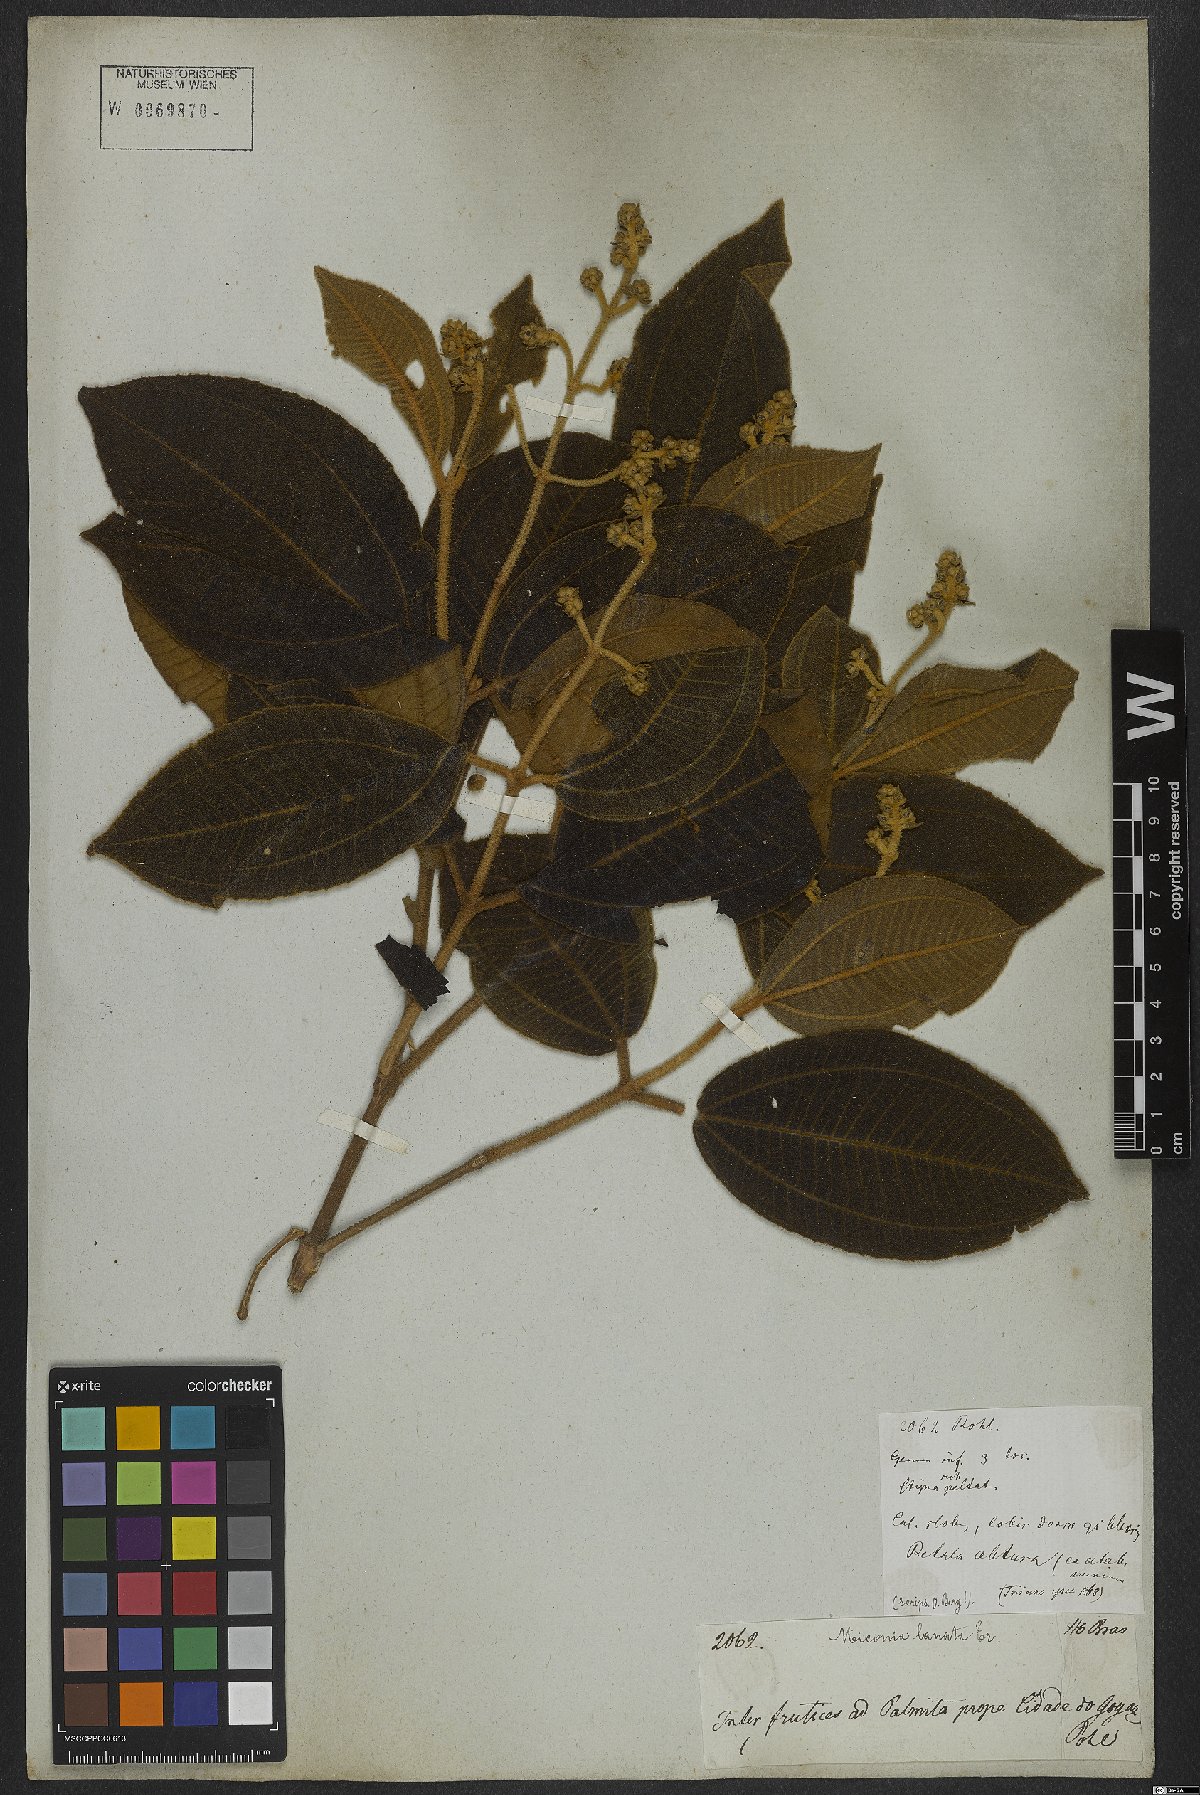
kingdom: Plantae
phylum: Tracheophyta
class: Magnoliopsida
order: Myrtales
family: Melastomataceae
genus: Miconia
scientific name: Miconia lanata
